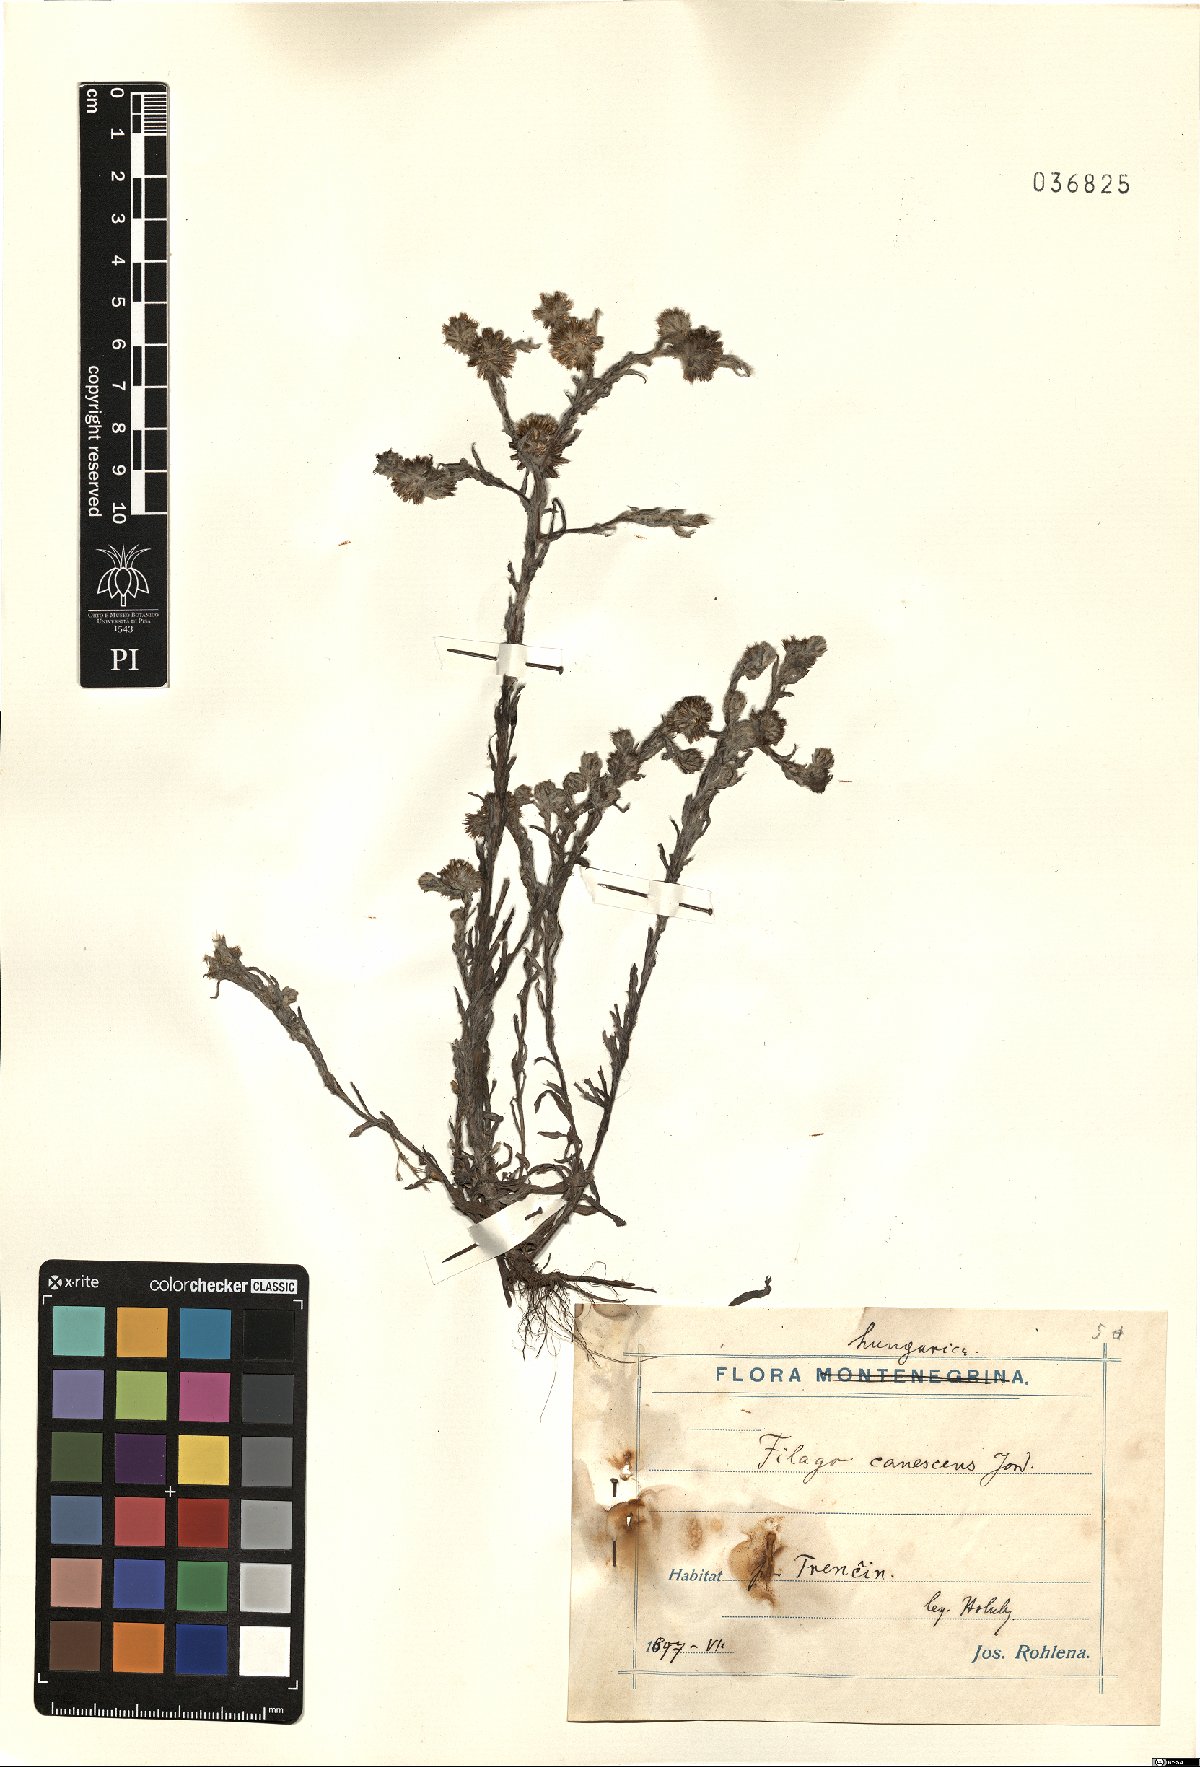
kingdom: Plantae
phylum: Tracheophyta
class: Magnoliopsida
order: Asterales
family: Asteraceae
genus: Filago
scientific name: Filago germanica
